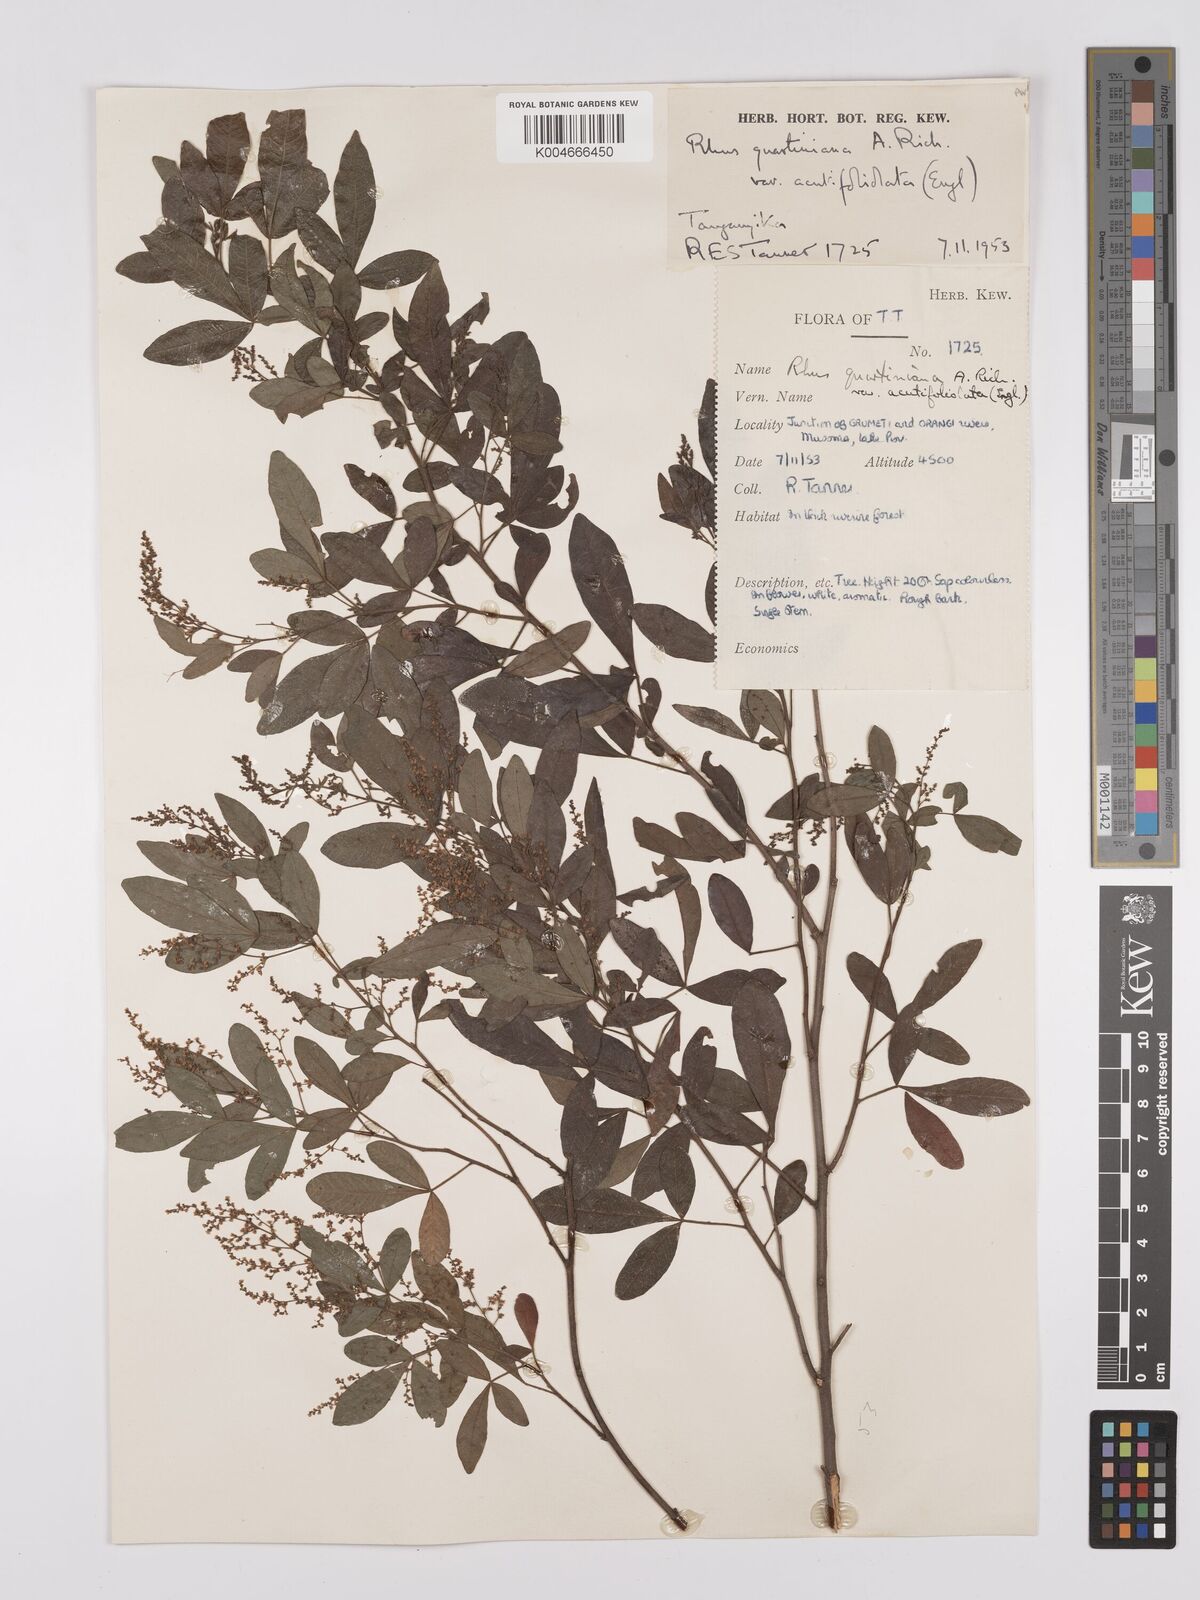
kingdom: Plantae
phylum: Tracheophyta
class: Magnoliopsida
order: Sapindales
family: Anacardiaceae
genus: Searsia
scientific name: Searsia quartiniana
